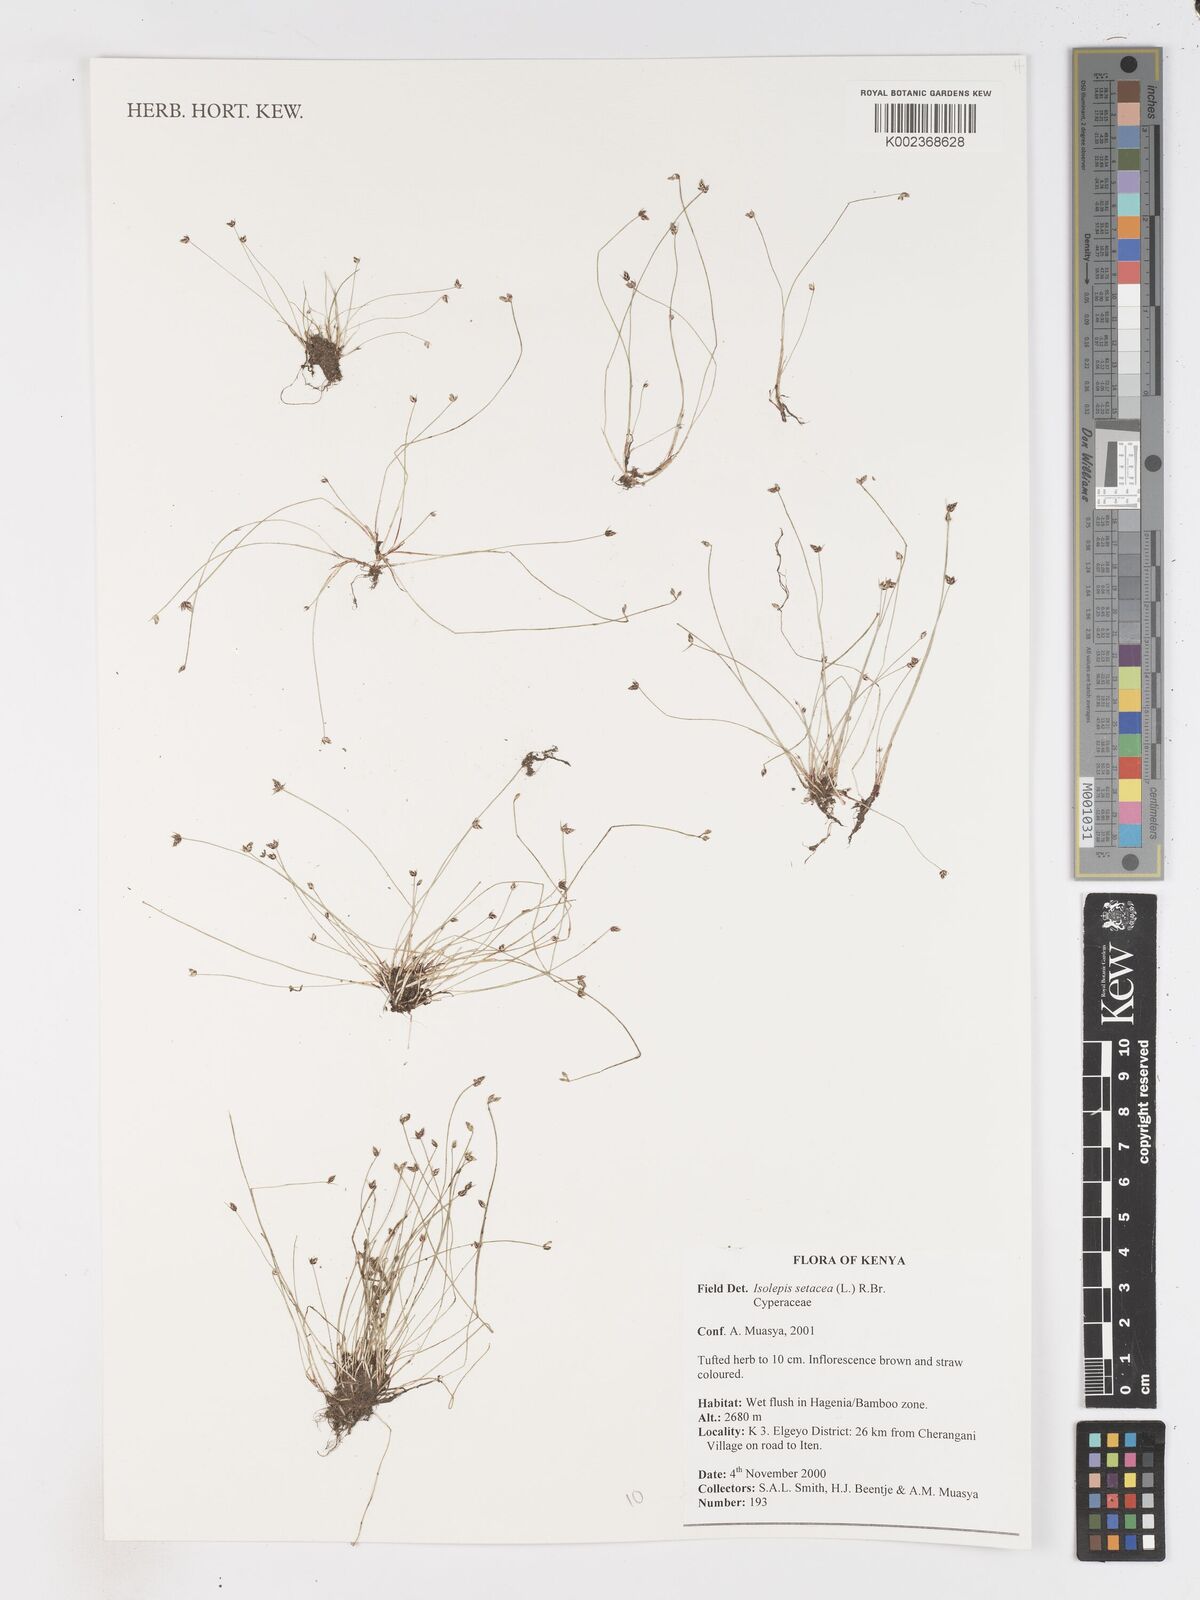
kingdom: Plantae
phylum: Tracheophyta
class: Liliopsida
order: Poales
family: Cyperaceae
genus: Isolepis
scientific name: Isolepis setacea
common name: Bristle club-rush
